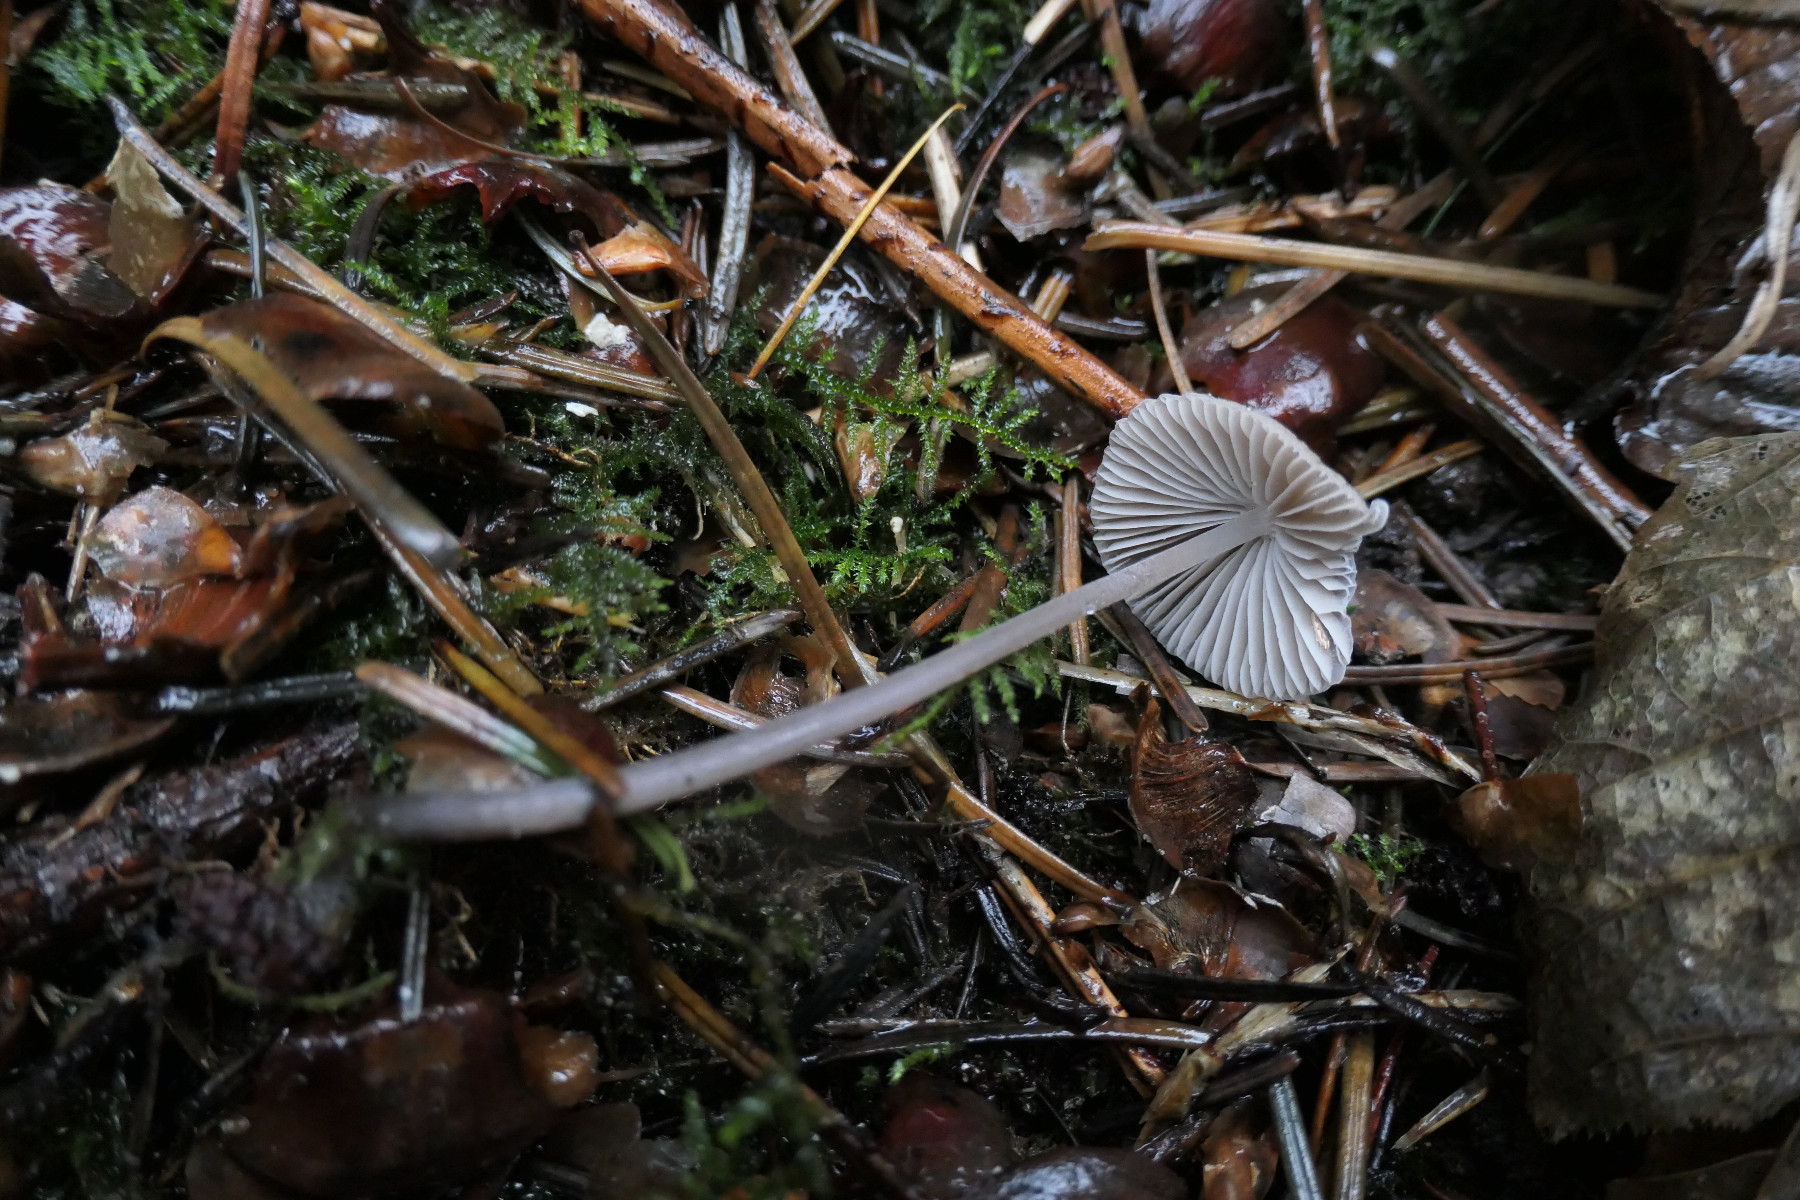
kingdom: Fungi
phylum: Basidiomycota
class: Agaricomycetes
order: Agaricales
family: Mycenaceae
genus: Mycena
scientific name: Mycena leptocephala
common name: klor-huesvamp
